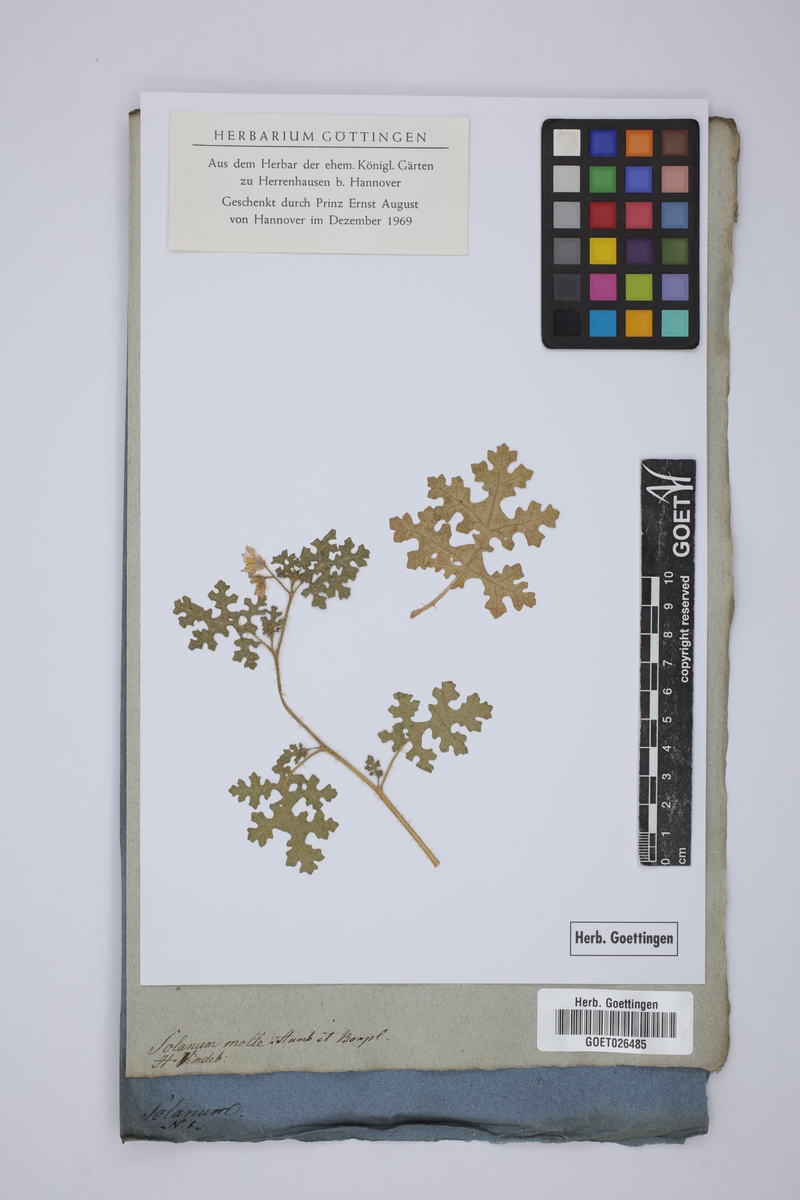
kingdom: Plantae
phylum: Tracheophyta
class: Magnoliopsida
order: Solanales
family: Solanaceae
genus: Solanum
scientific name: Solanum monachophyllum
